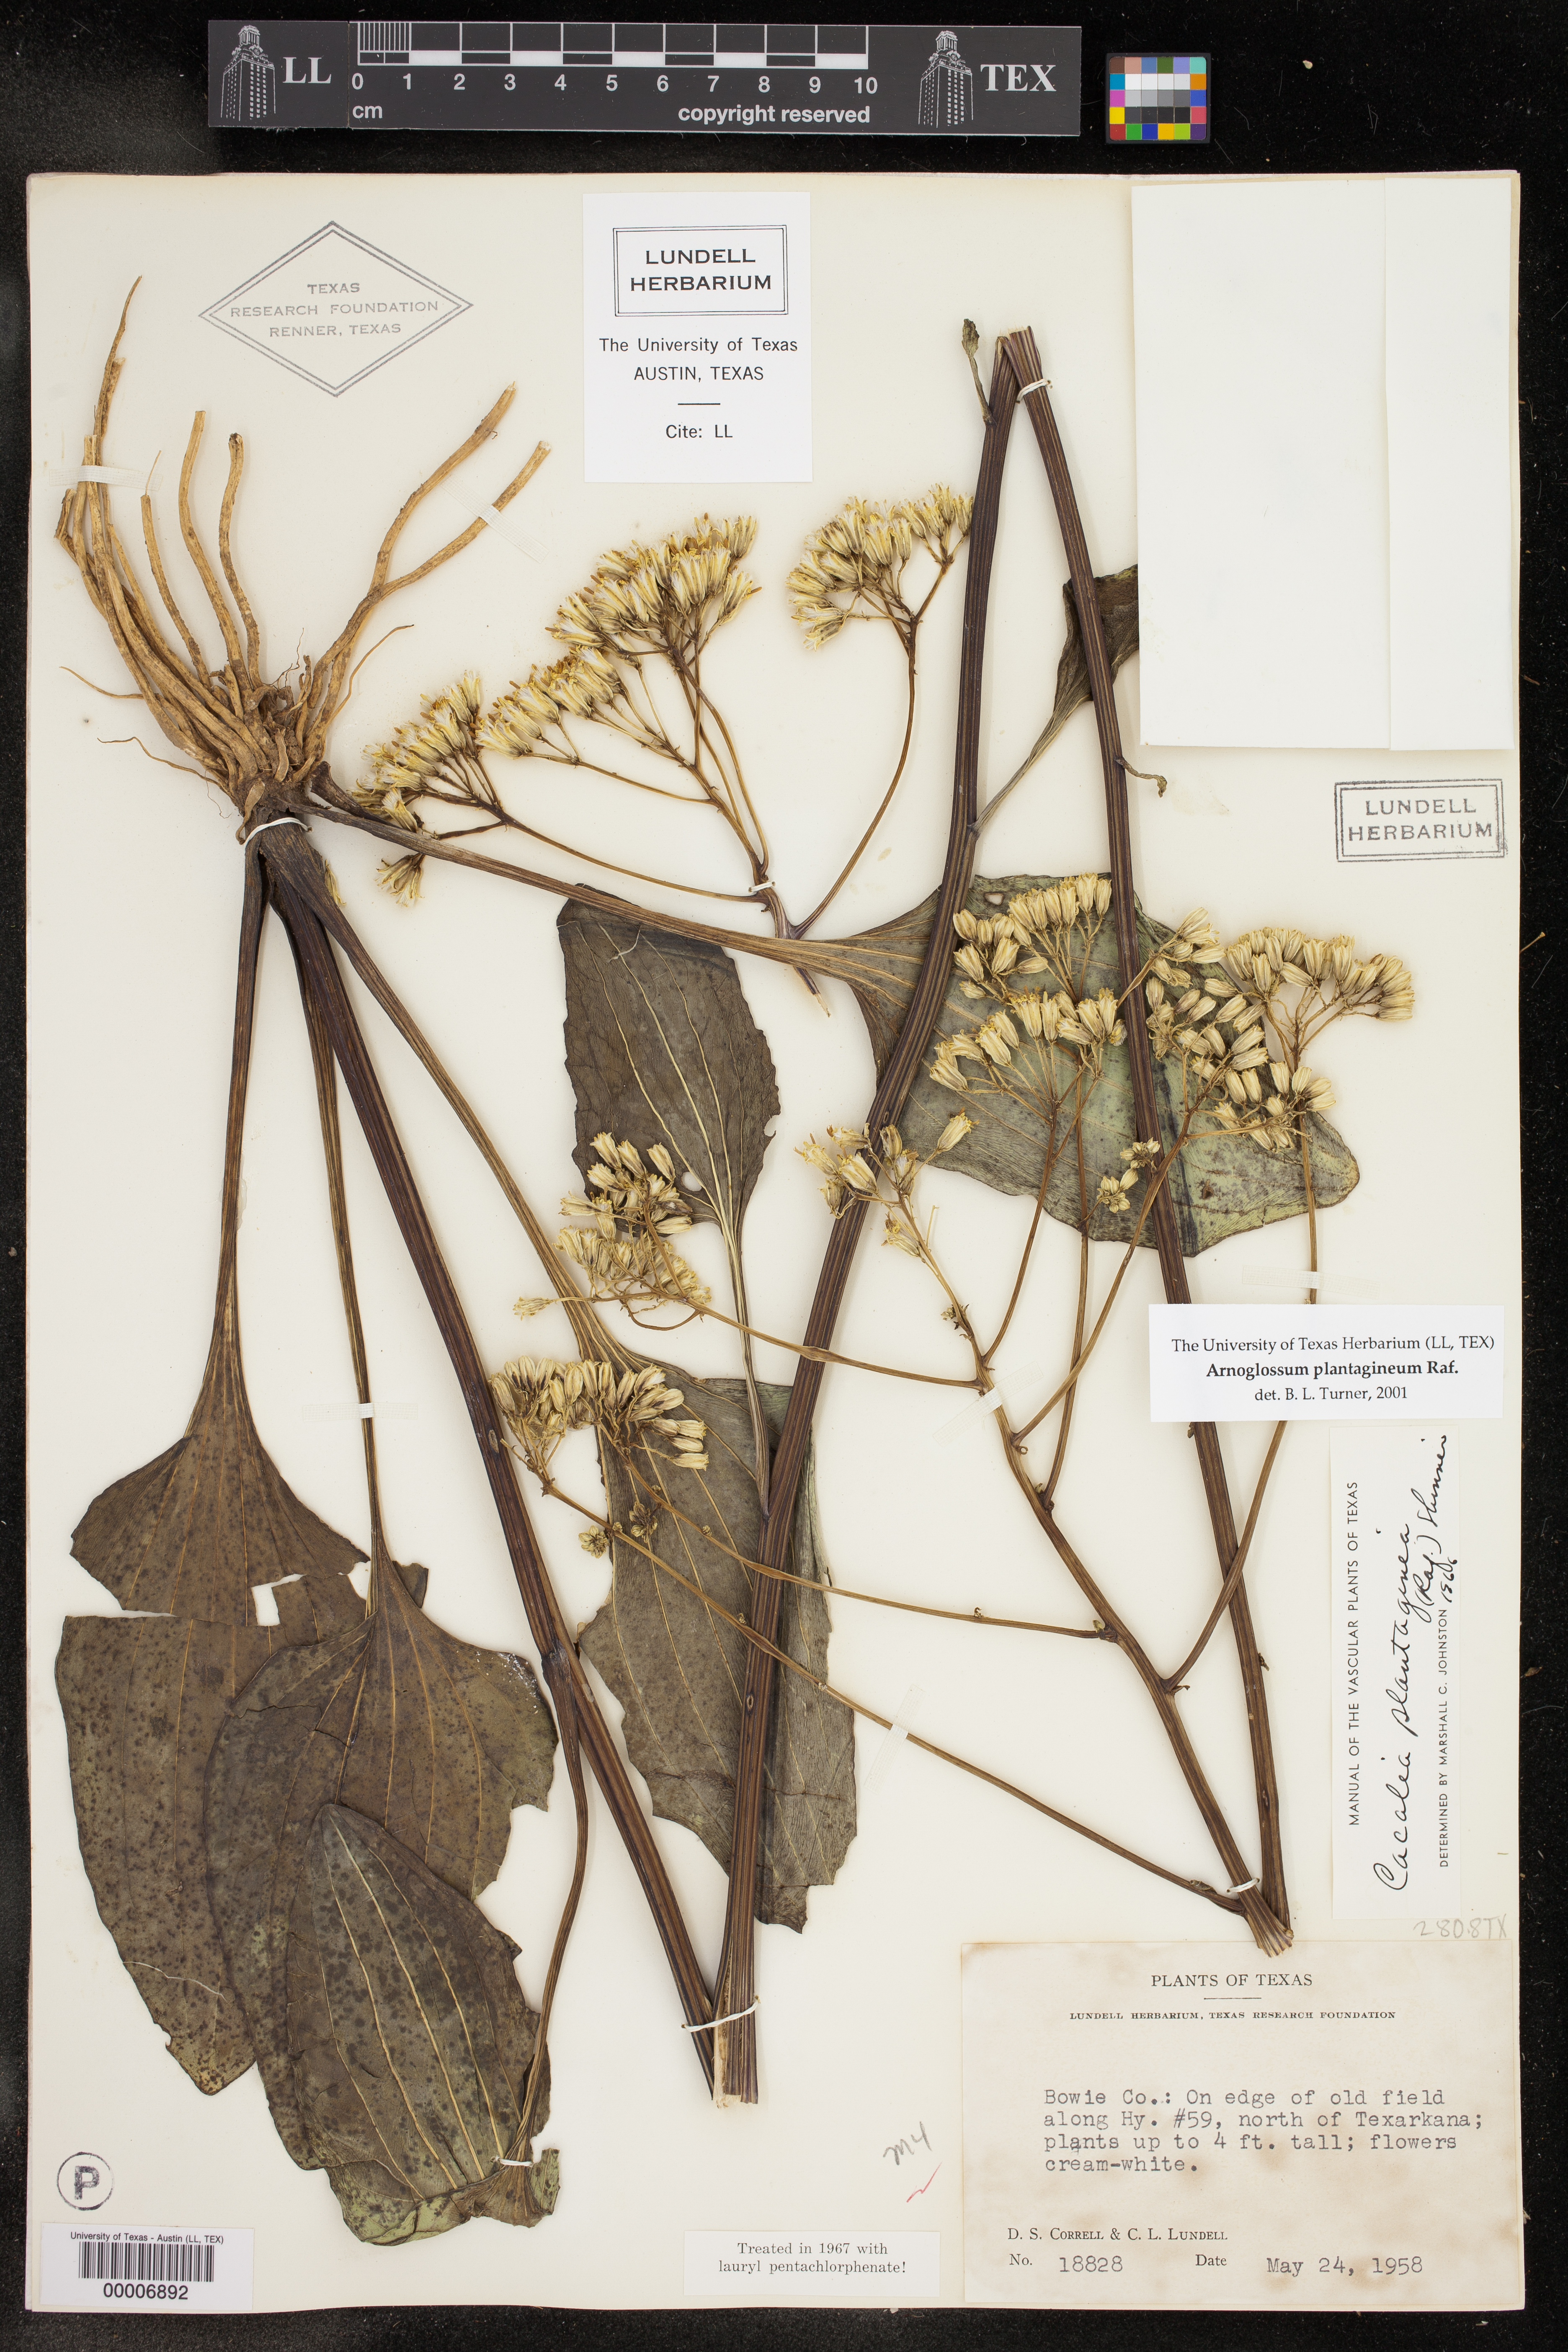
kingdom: Plantae
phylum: Tracheophyta
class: Magnoliopsida
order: Asterales
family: Asteraceae
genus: Arnoglossum
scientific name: Arnoglossum plantagineum
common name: Groove-stemmed indian-plantain
